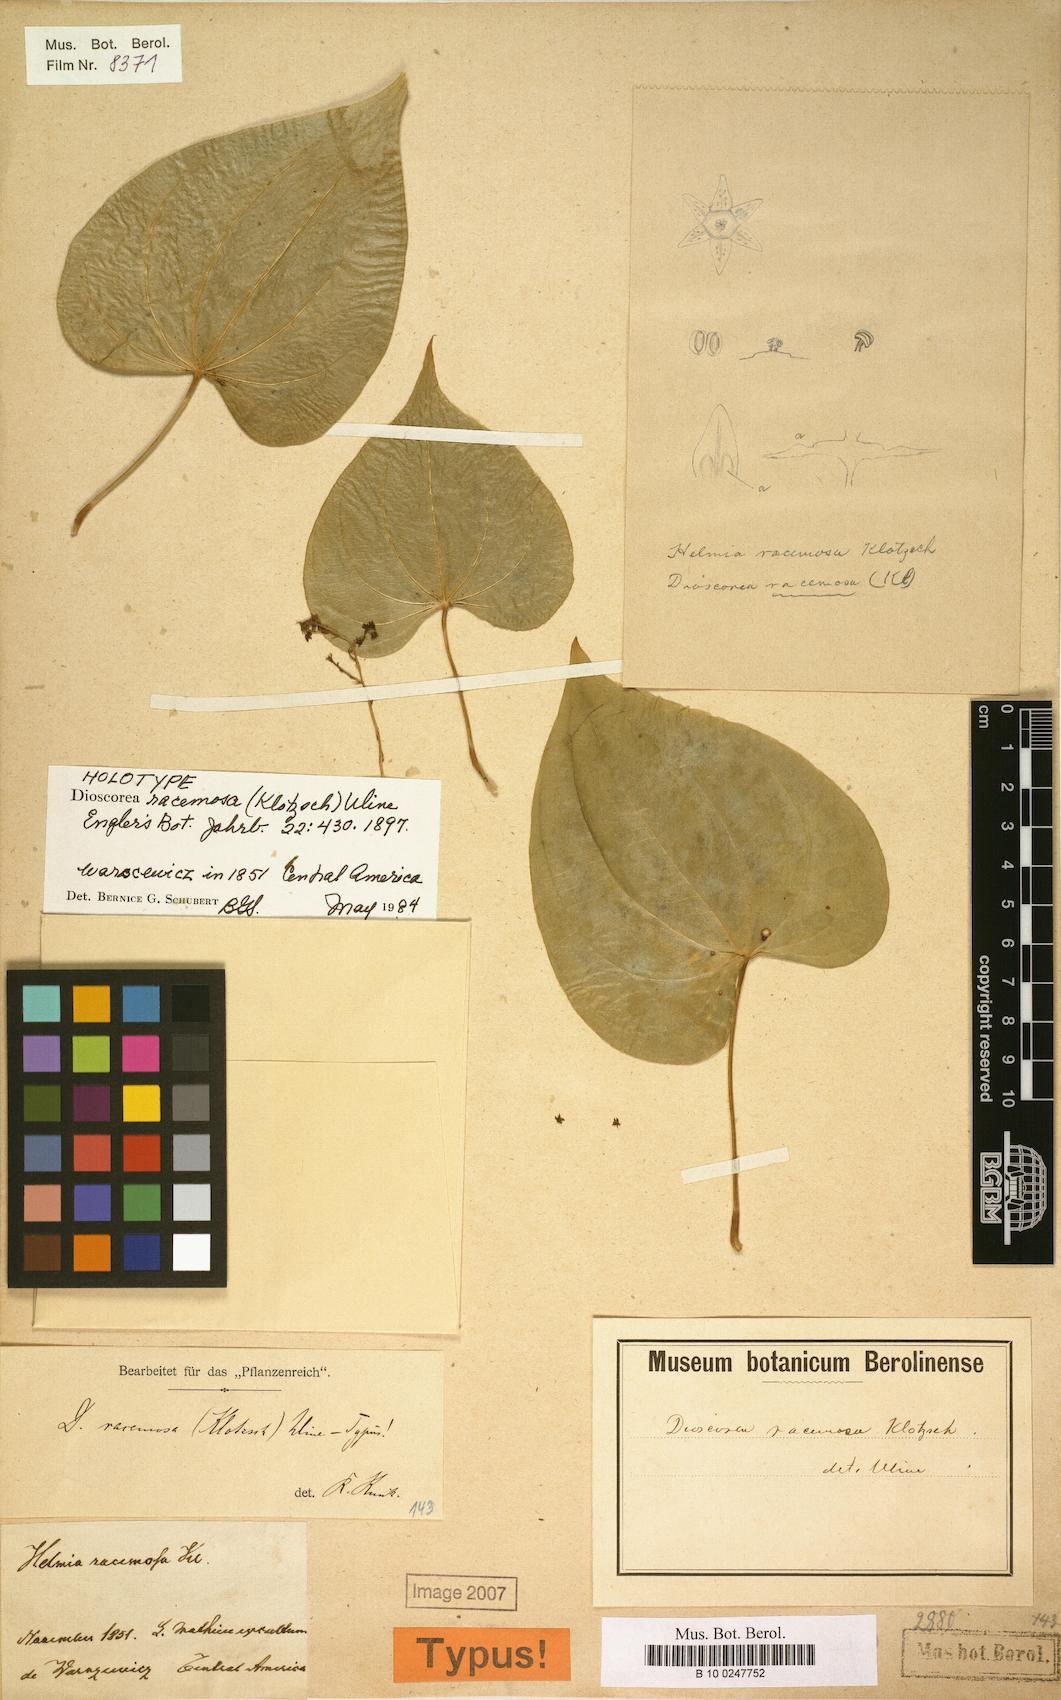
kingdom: Plantae
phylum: Tracheophyta
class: Liliopsida
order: Dioscoreales
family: Dioscoreaceae
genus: Dioscorea
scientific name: Dioscorea racemosa
